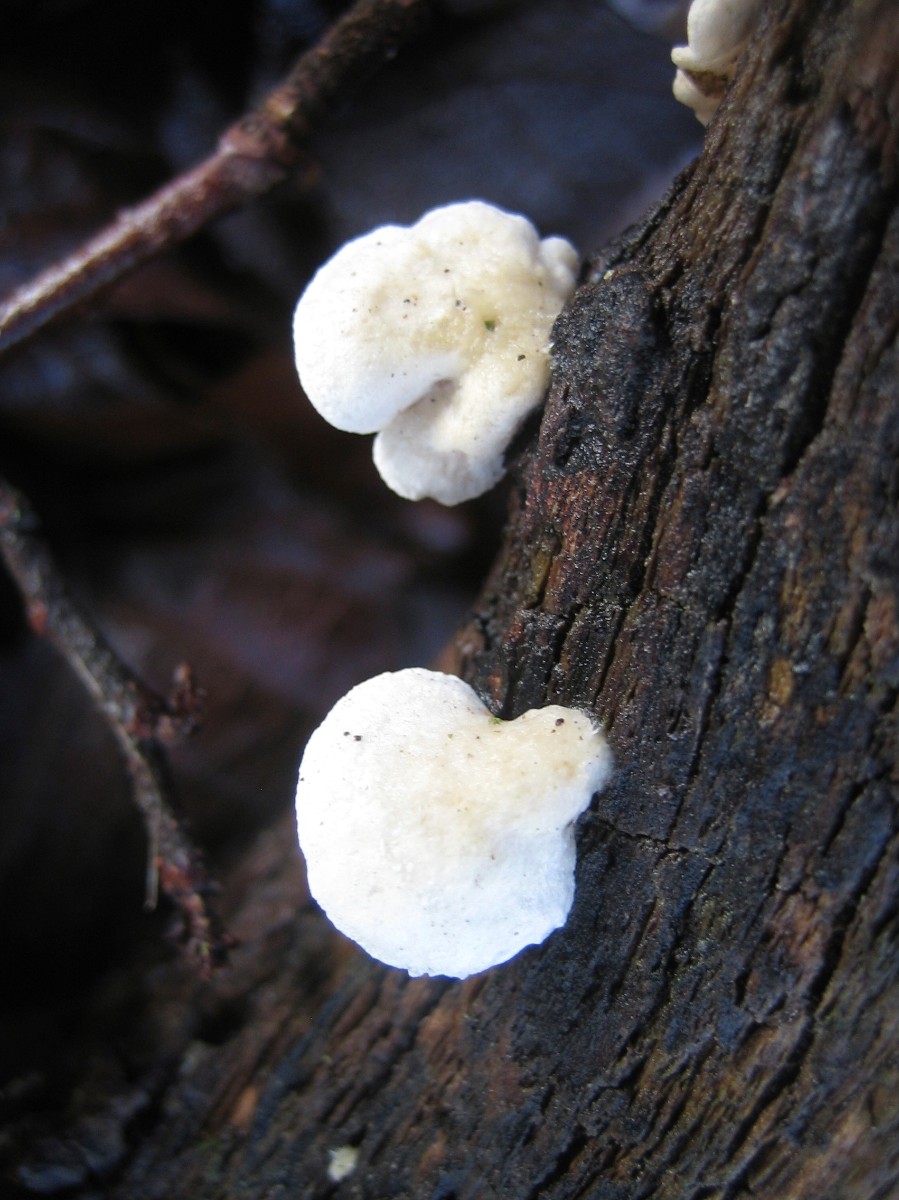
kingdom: Fungi
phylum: Basidiomycota
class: Agaricomycetes
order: Agaricales
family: Crepidotaceae
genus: Crepidotus
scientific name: Crepidotus
